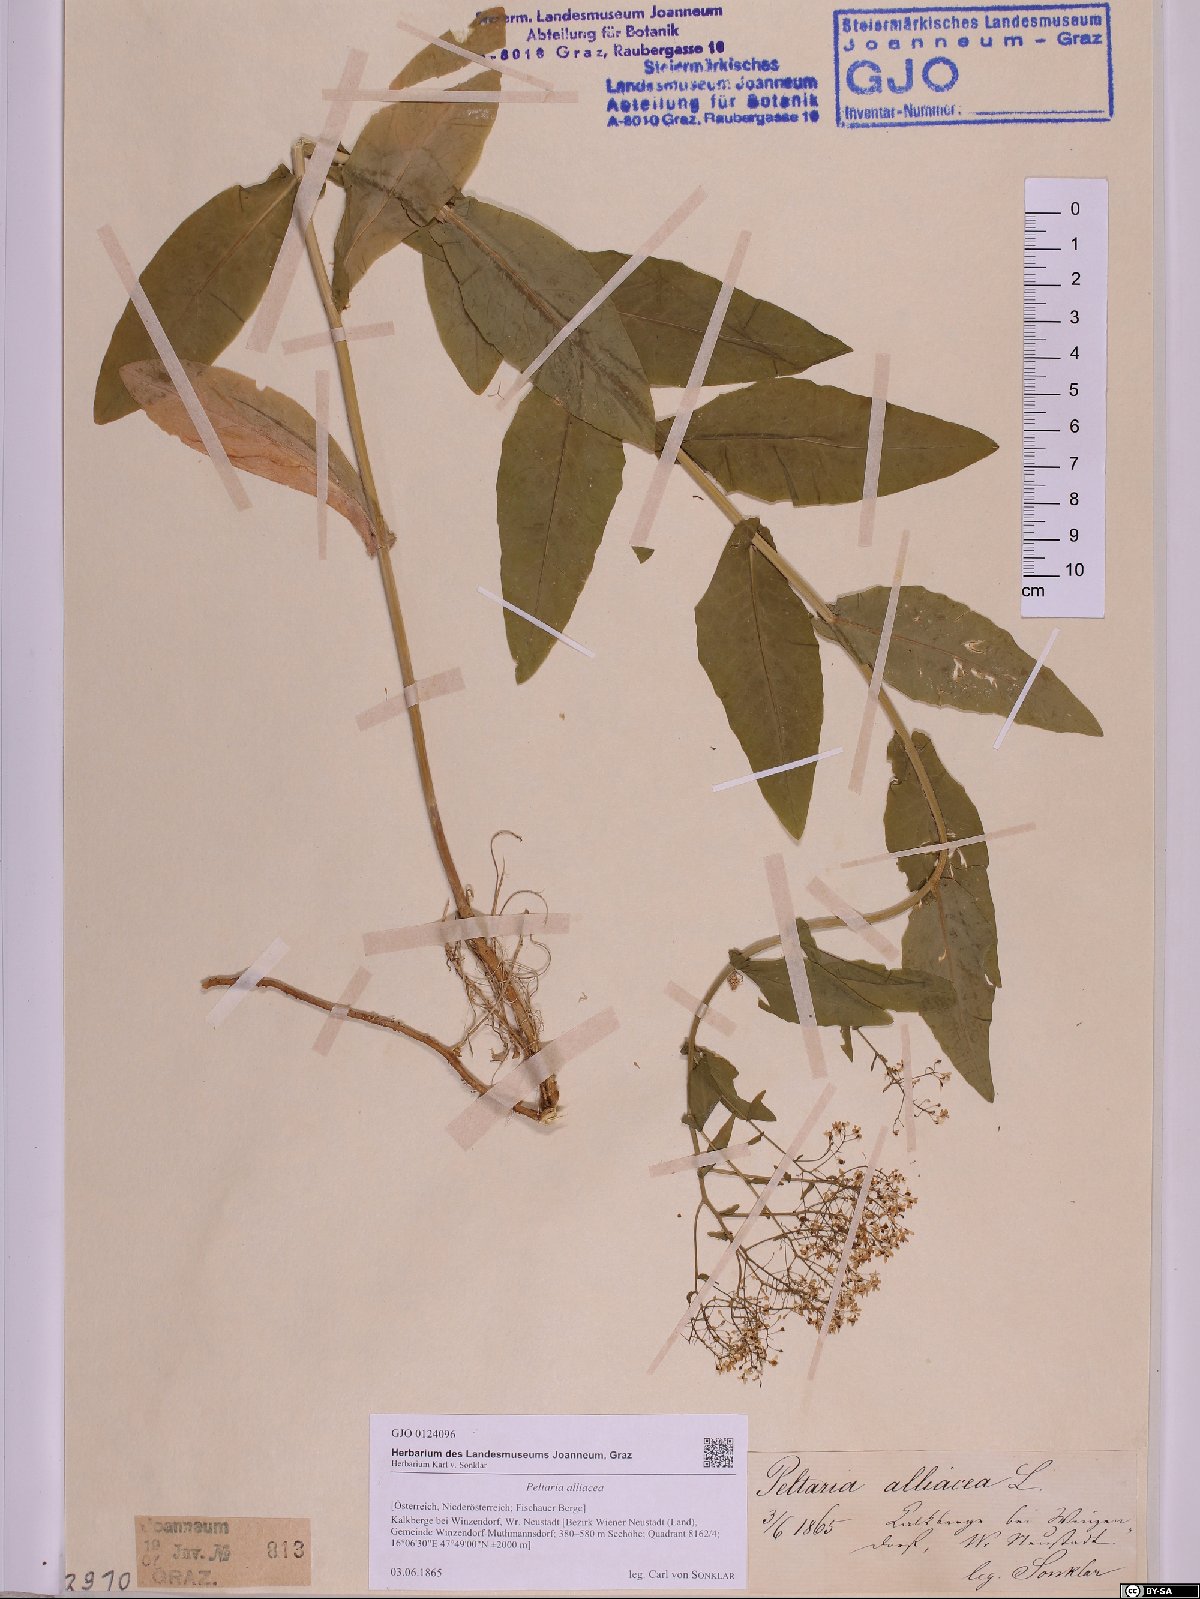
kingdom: Plantae
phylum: Tracheophyta
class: Magnoliopsida
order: Brassicales
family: Brassicaceae
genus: Peltaria
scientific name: Peltaria alliacea
